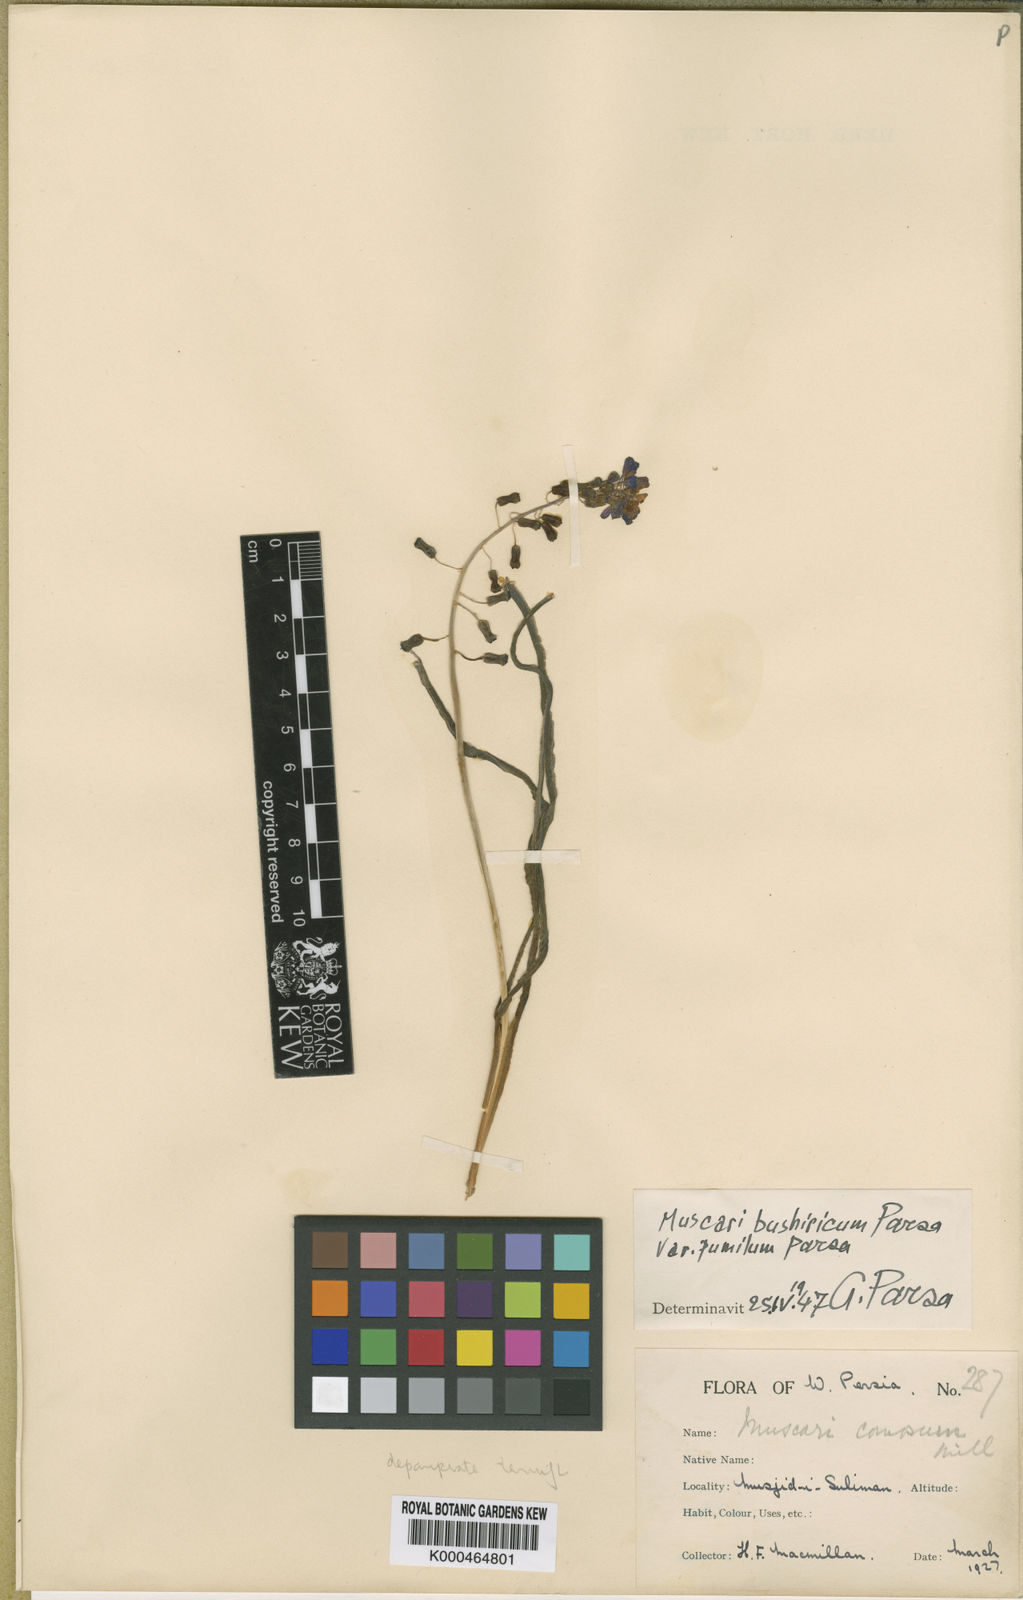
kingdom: Animalia
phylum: Mollusca
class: Cephalopoda
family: Neocomitidae
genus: Leopoldia
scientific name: Leopoldia
